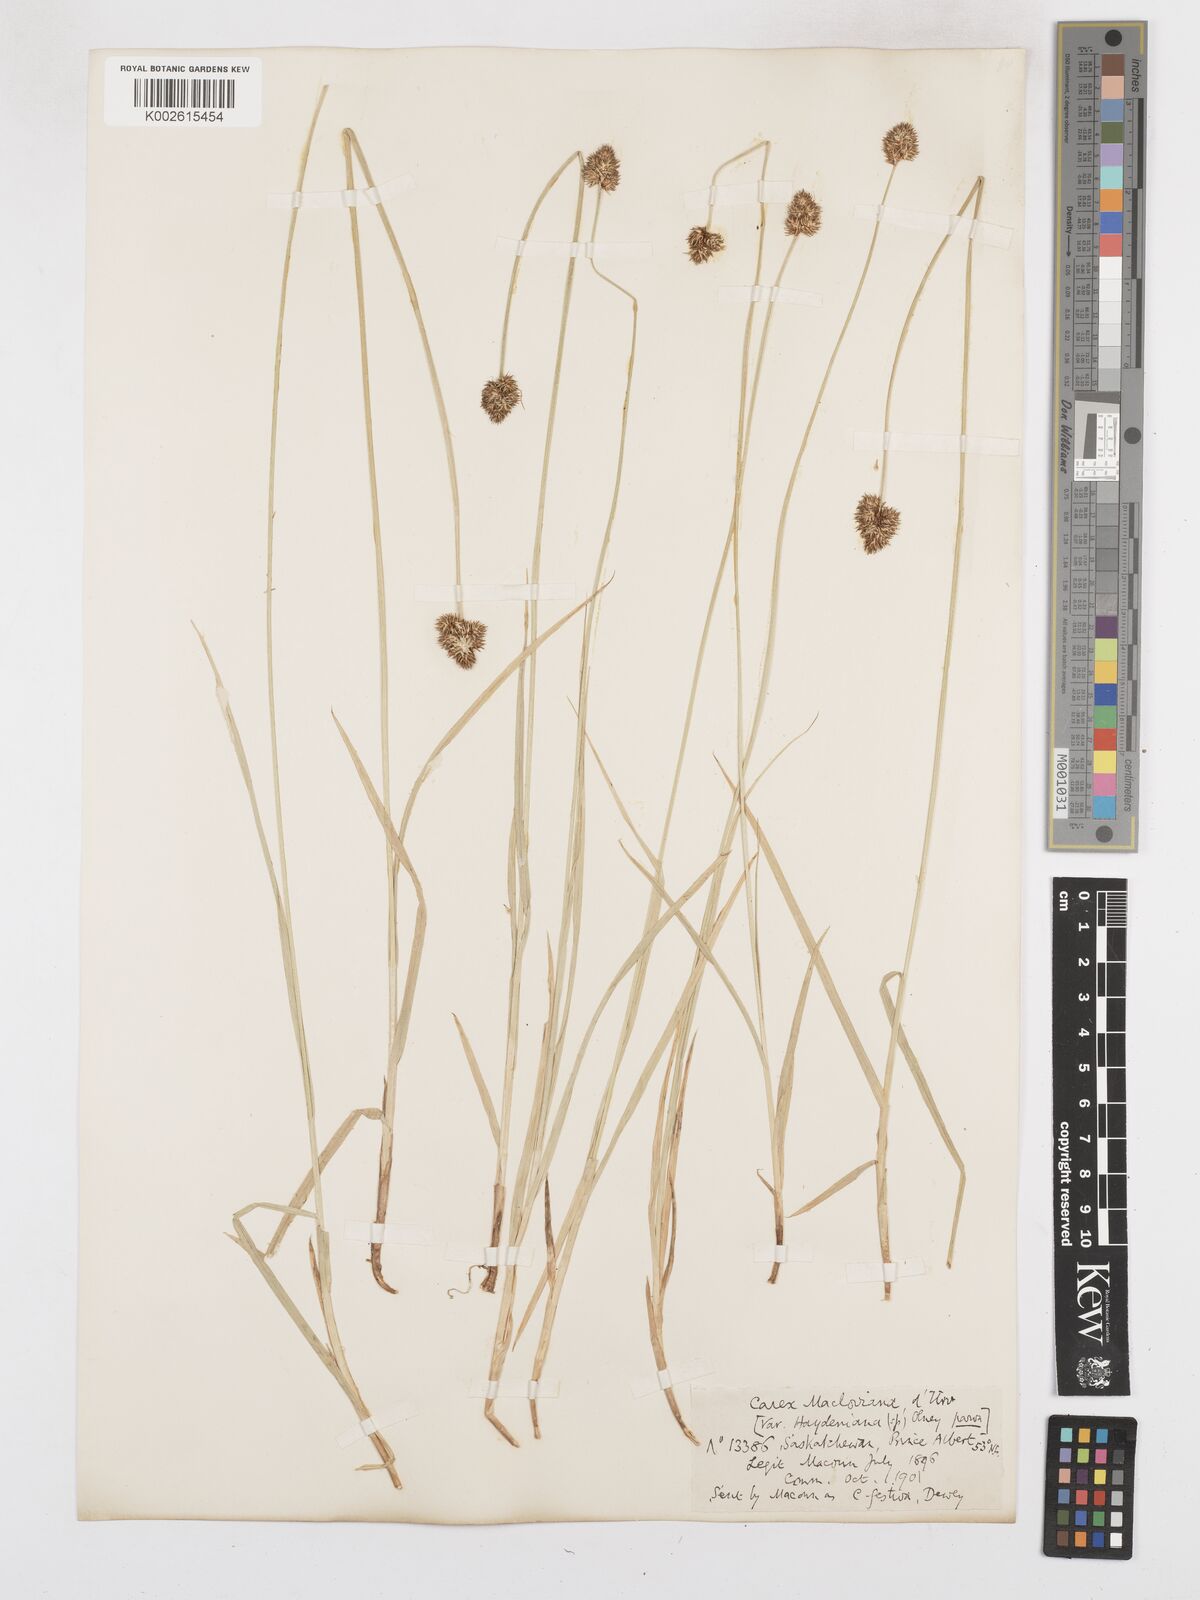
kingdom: Plantae
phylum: Tracheophyta
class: Liliopsida
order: Poales
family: Cyperaceae
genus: Carex
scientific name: Carex haydeniana
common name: Cloud sedge
